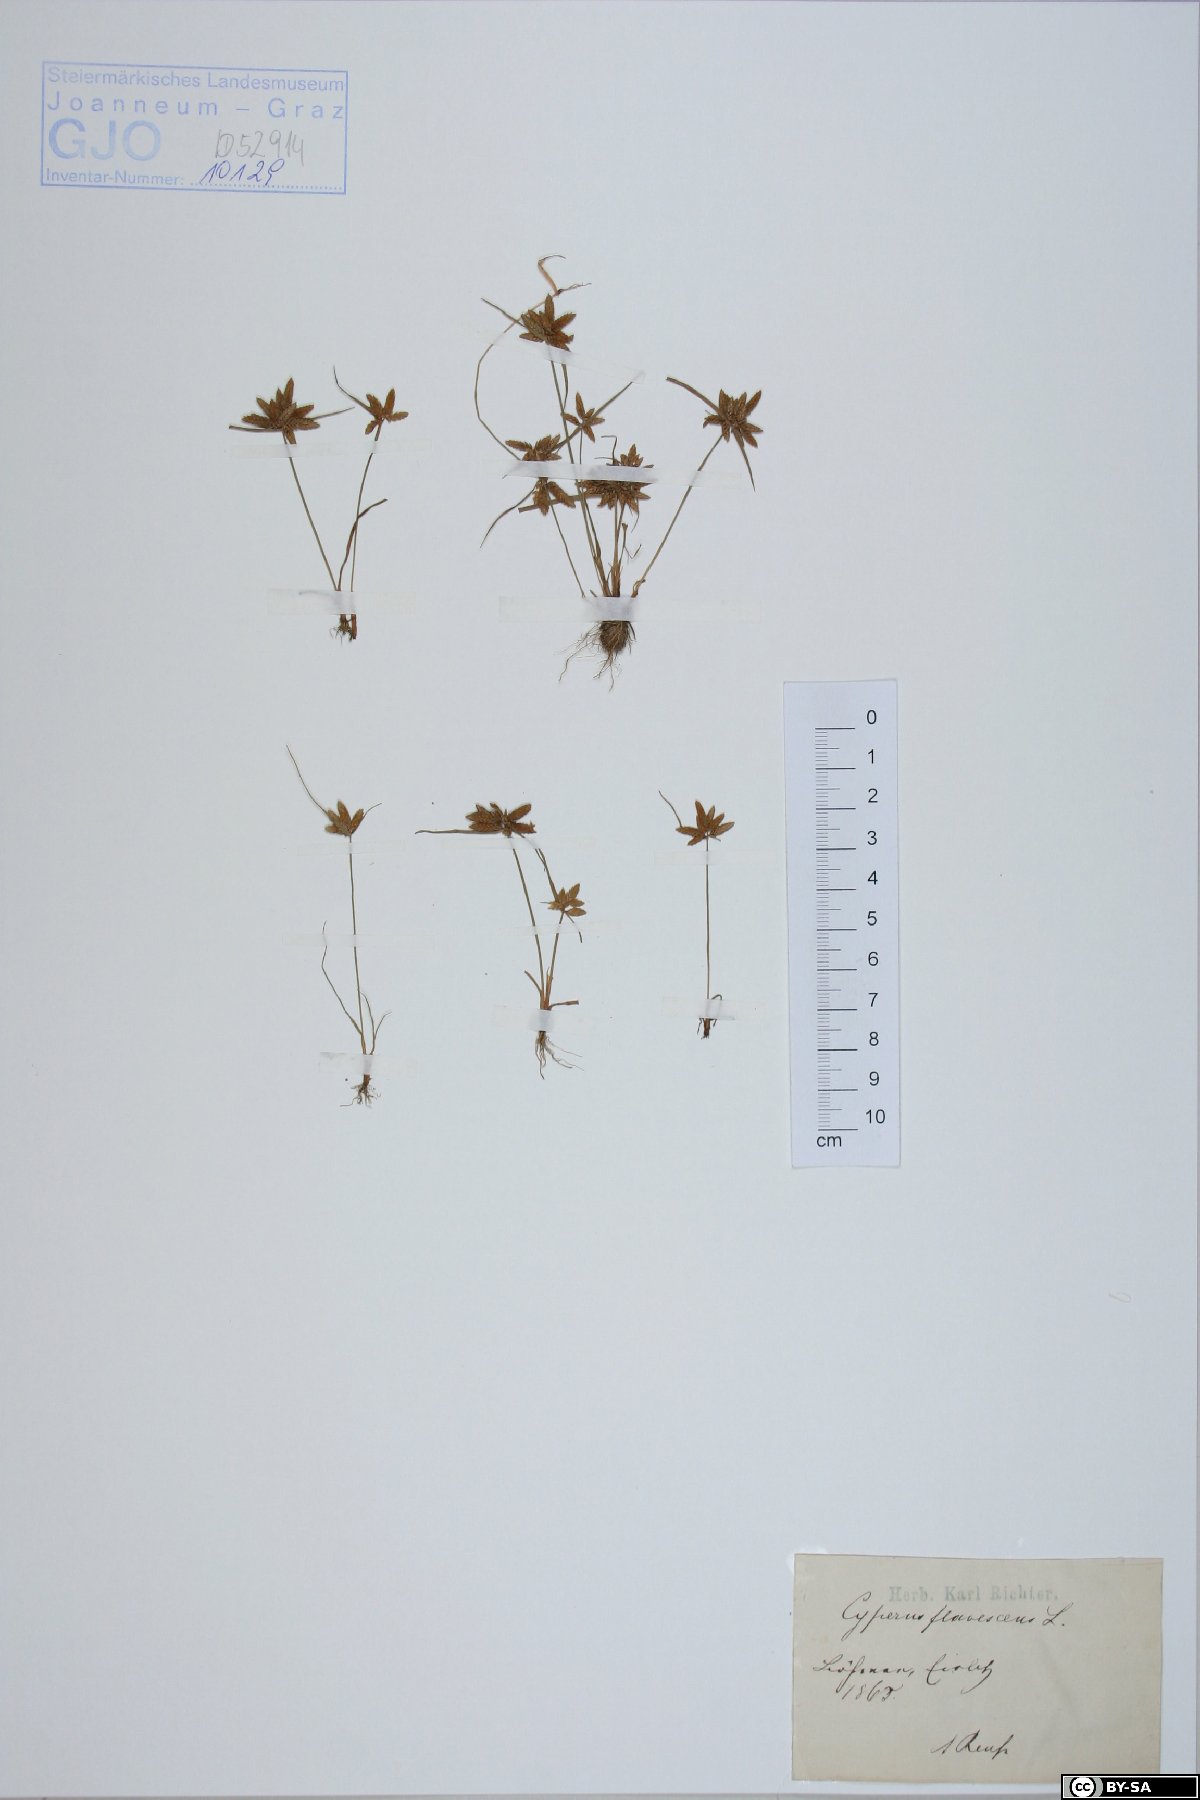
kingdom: Plantae
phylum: Tracheophyta
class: Liliopsida
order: Poales
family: Cyperaceae
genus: Cyperus
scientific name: Cyperus flavescens
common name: Yellow galingale
